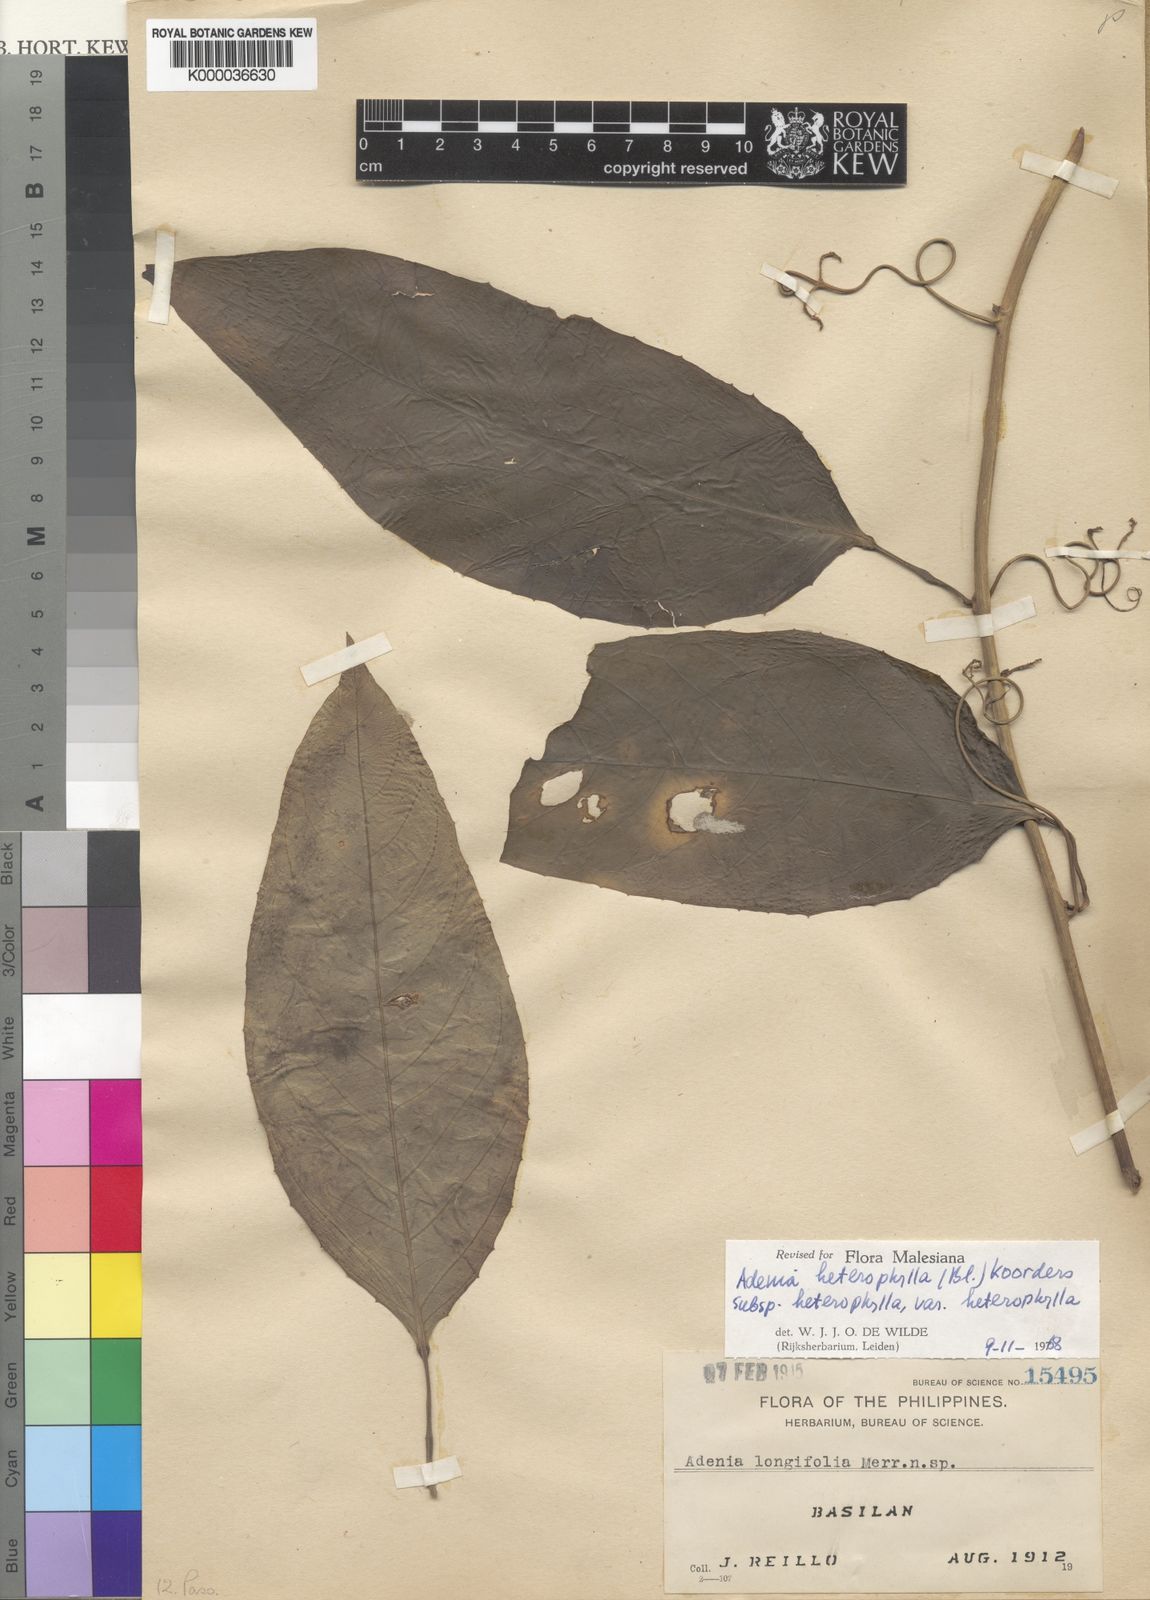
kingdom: Plantae
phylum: Tracheophyta
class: Magnoliopsida
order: Malpighiales
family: Passifloraceae
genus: Adenia
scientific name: Adenia heterophylla
